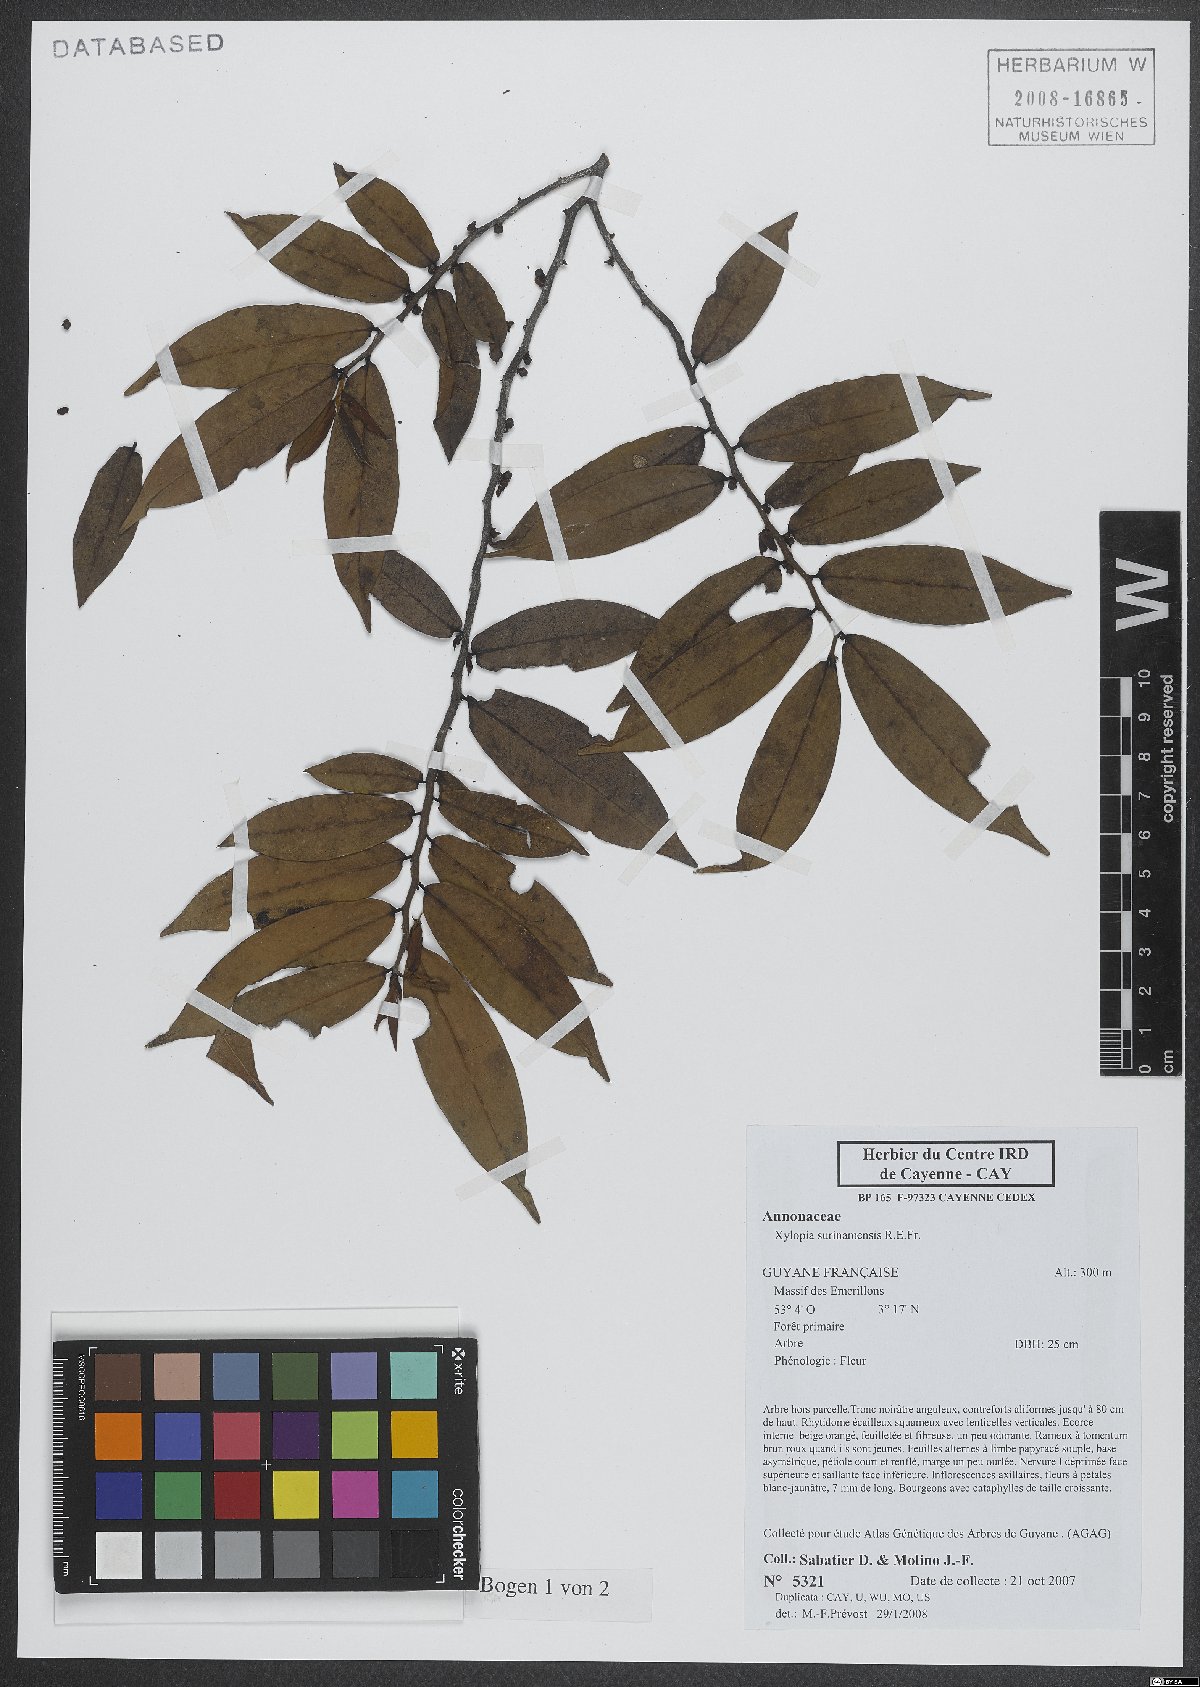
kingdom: Plantae
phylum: Tracheophyta
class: Magnoliopsida
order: Magnoliales
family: Annonaceae
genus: Xylopia
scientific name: Xylopia surinamensis
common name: Black wepopi
